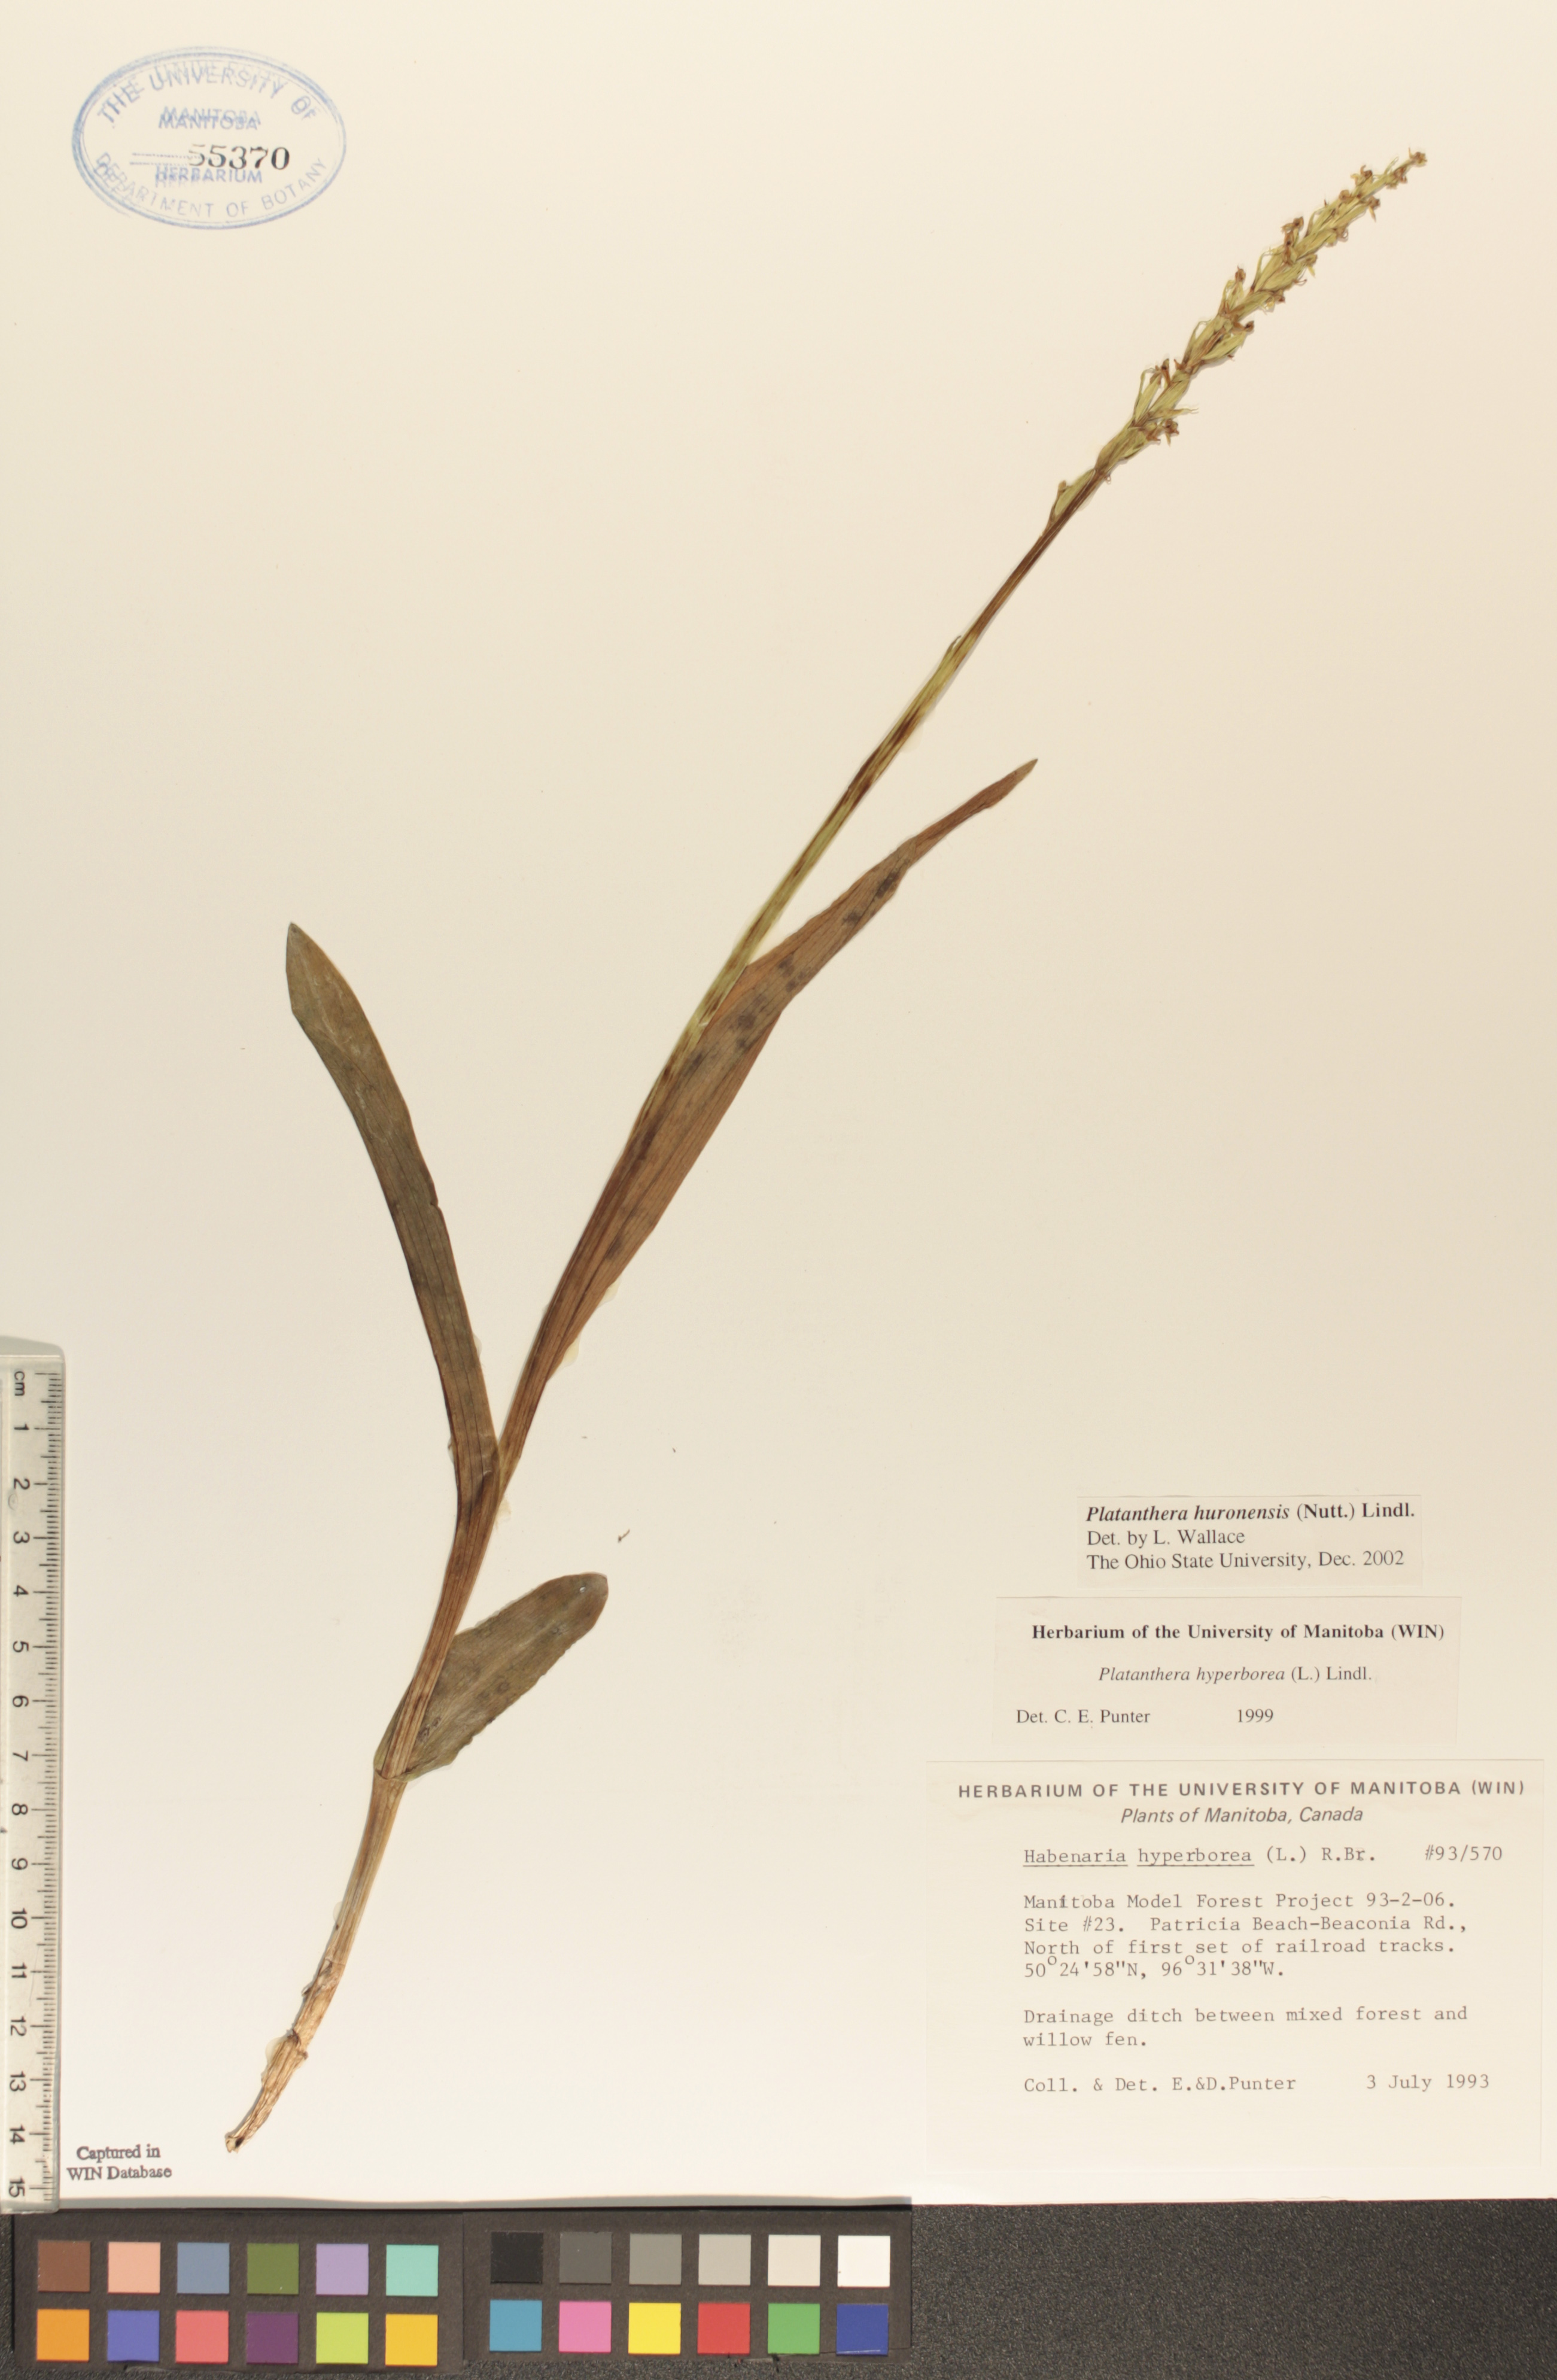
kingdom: Plantae
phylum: Tracheophyta
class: Liliopsida
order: Asparagales
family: Orchidaceae
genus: Platanthera
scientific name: Platanthera huronensis
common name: Fragrant green orchid
